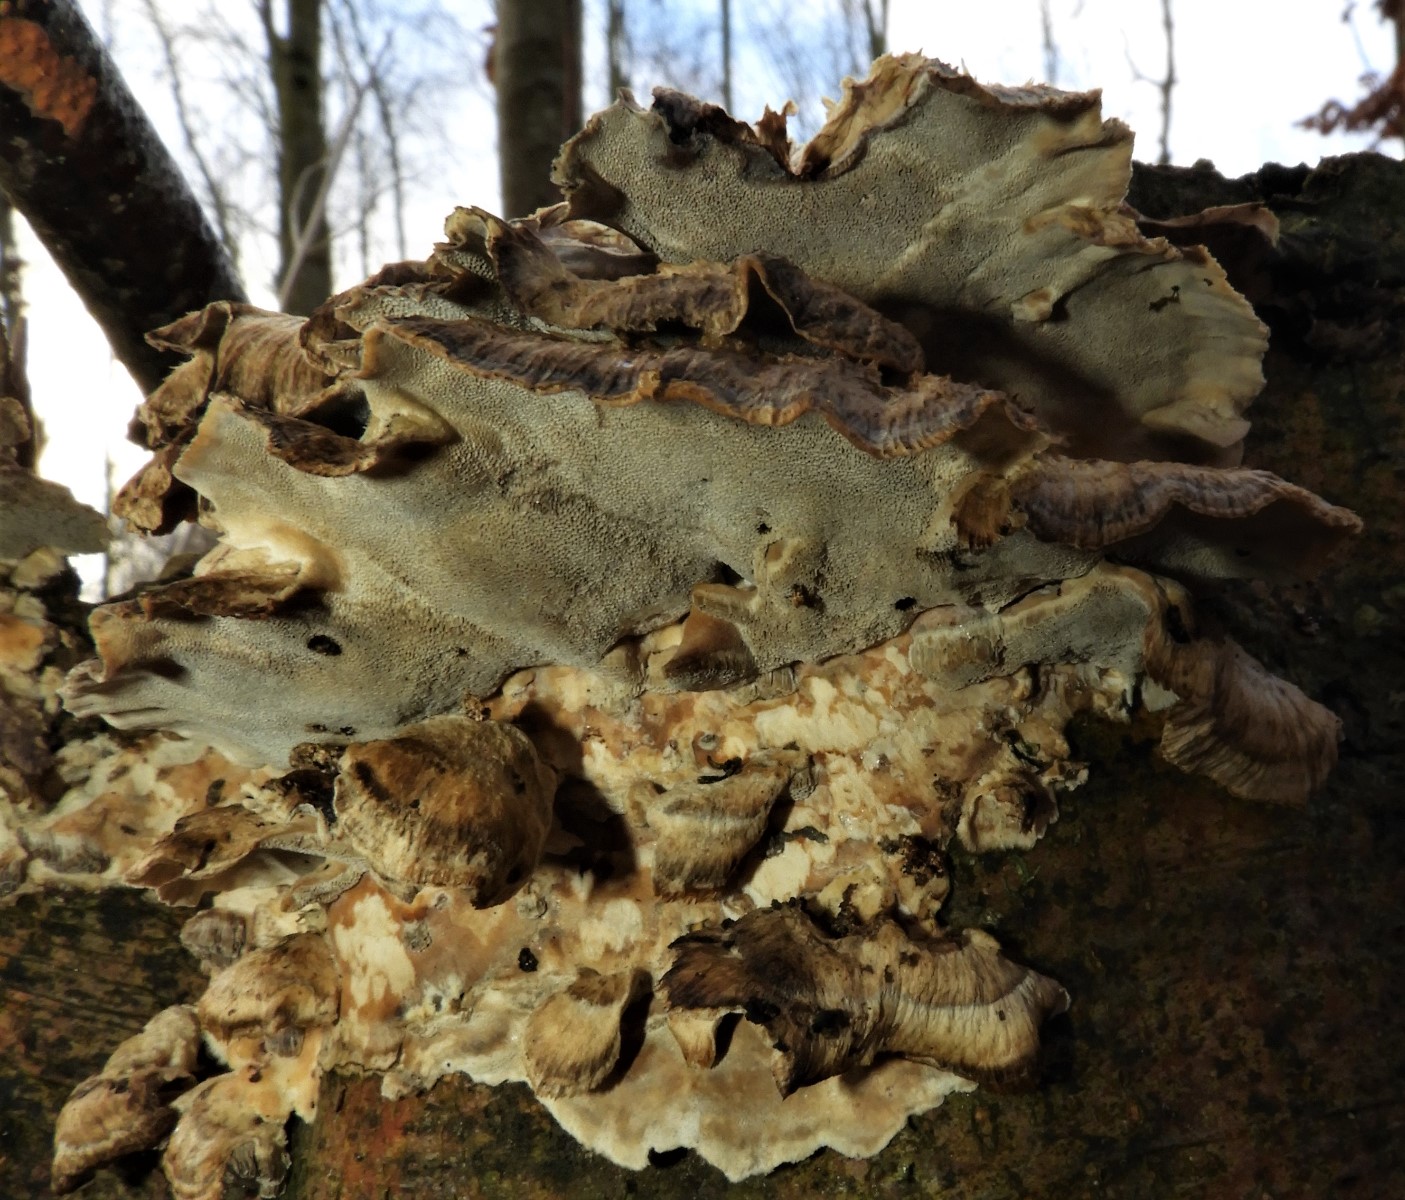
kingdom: Fungi
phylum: Basidiomycota
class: Agaricomycetes
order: Polyporales
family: Phanerochaetaceae
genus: Bjerkandera
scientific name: Bjerkandera adusta
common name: sveden sodporesvamp
